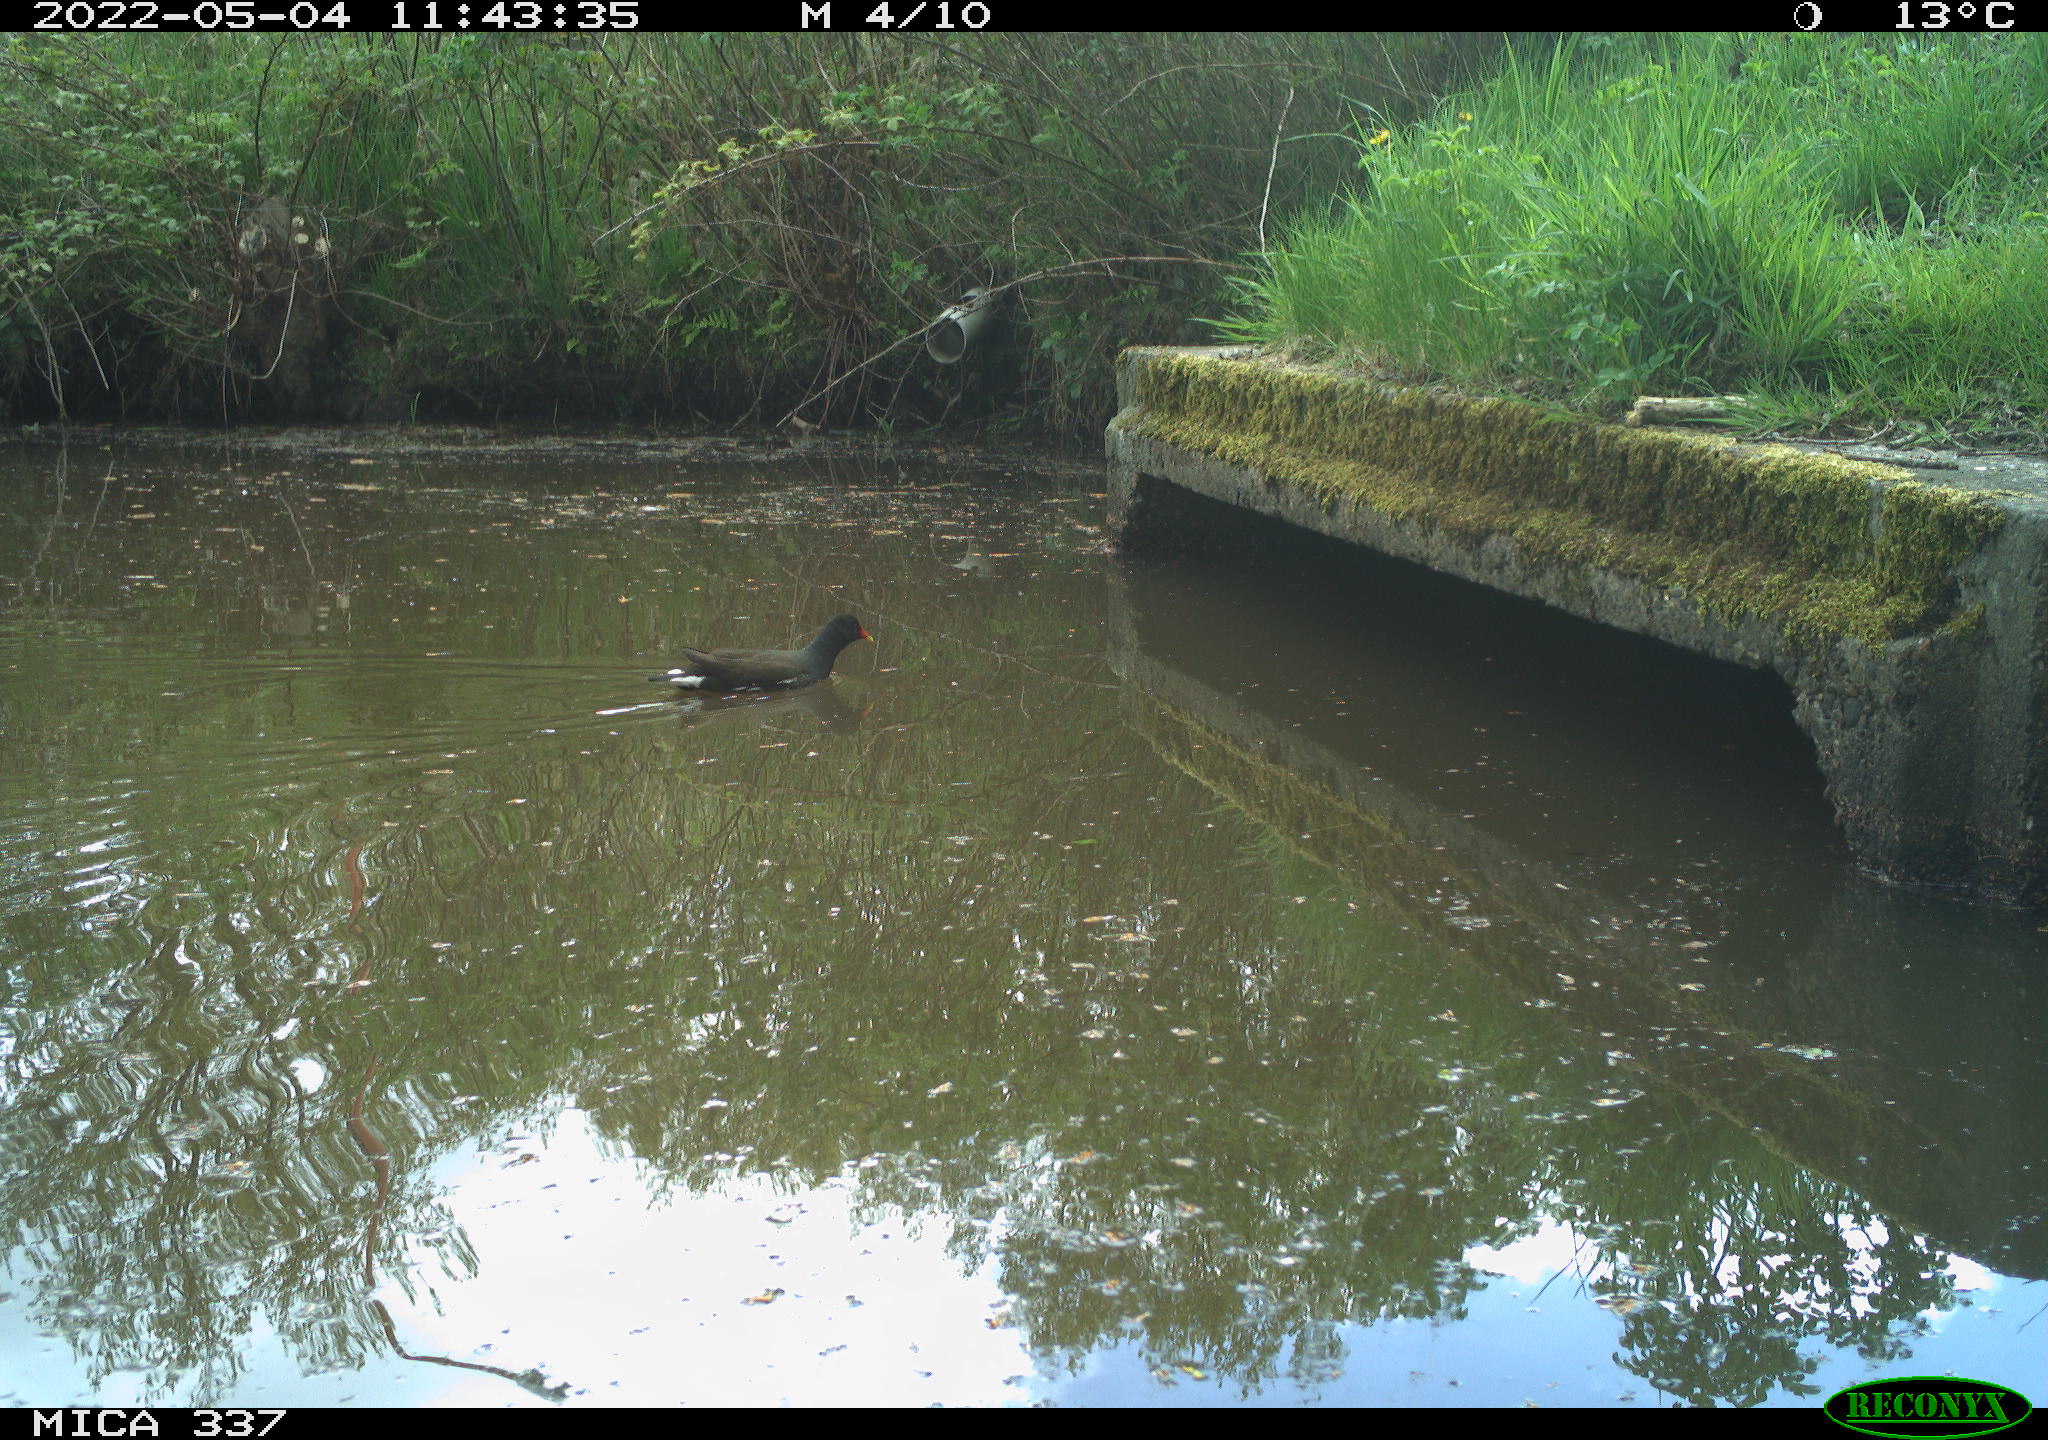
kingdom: Animalia
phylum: Chordata
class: Aves
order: Gruiformes
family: Rallidae
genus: Gallinula
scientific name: Gallinula chloropus
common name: Common moorhen
